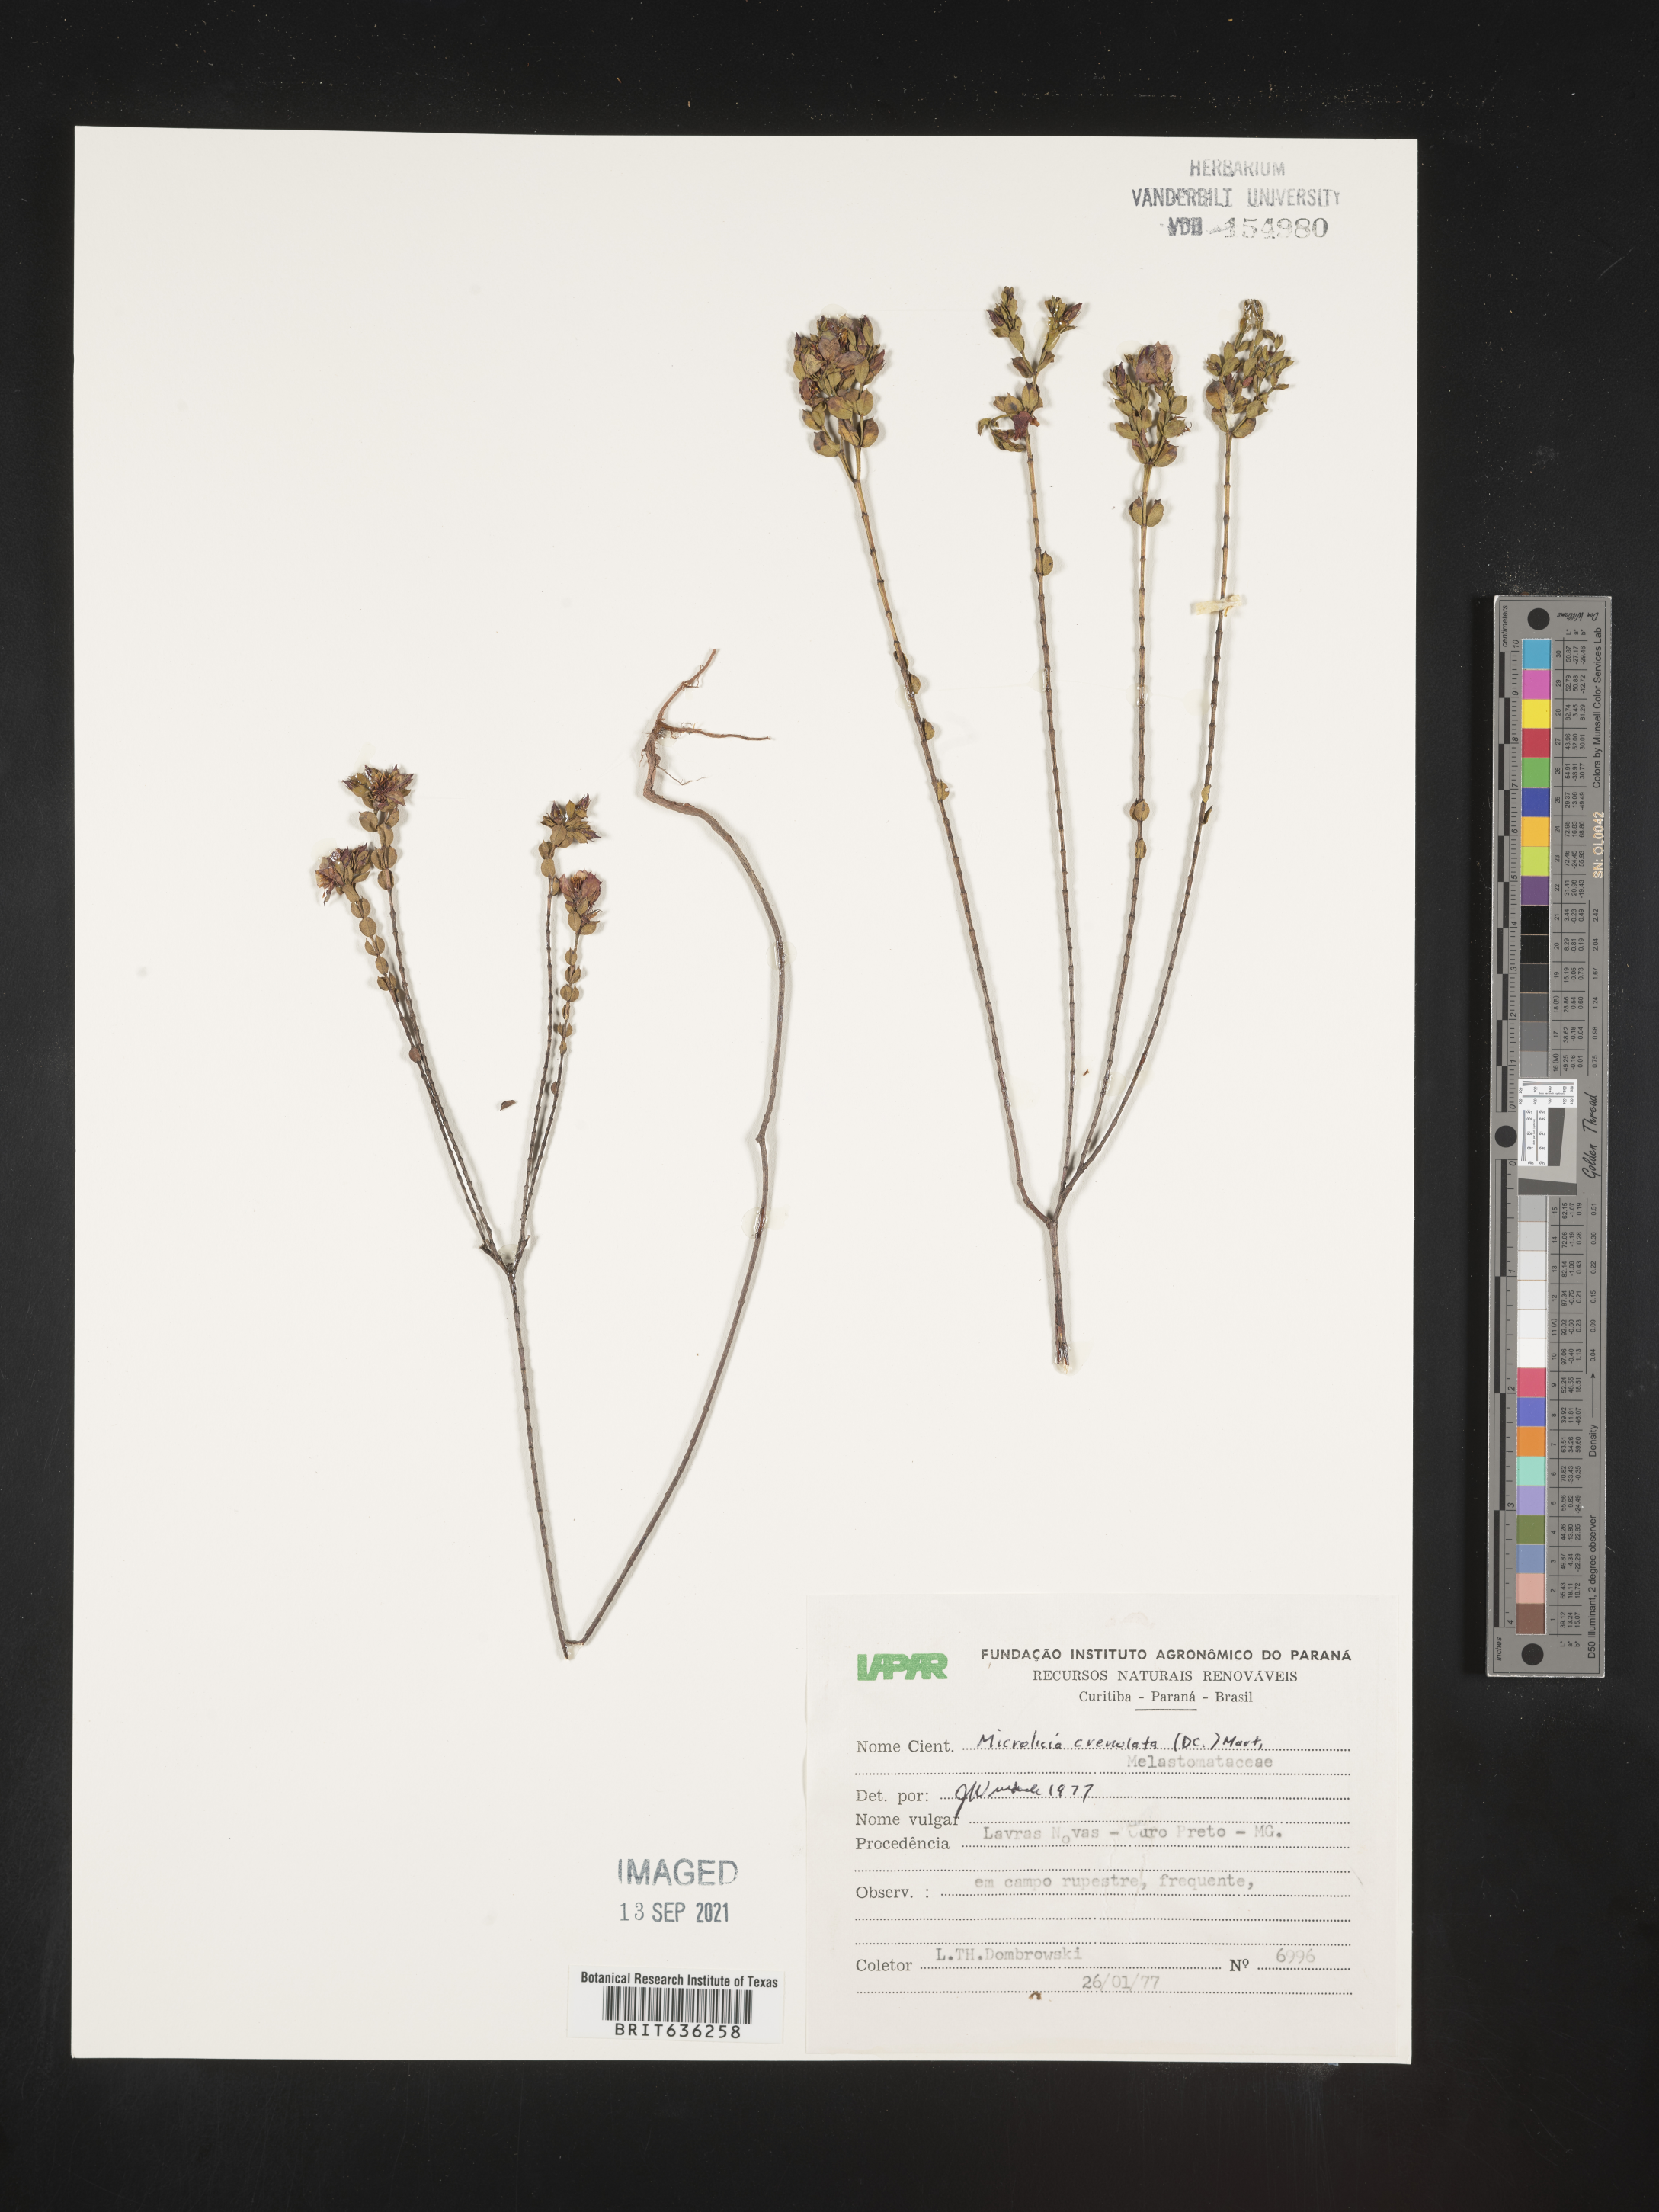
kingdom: Plantae
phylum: Tracheophyta
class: Magnoliopsida
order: Myrtales
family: Melastomataceae
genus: Microlicia
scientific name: Microlicia
